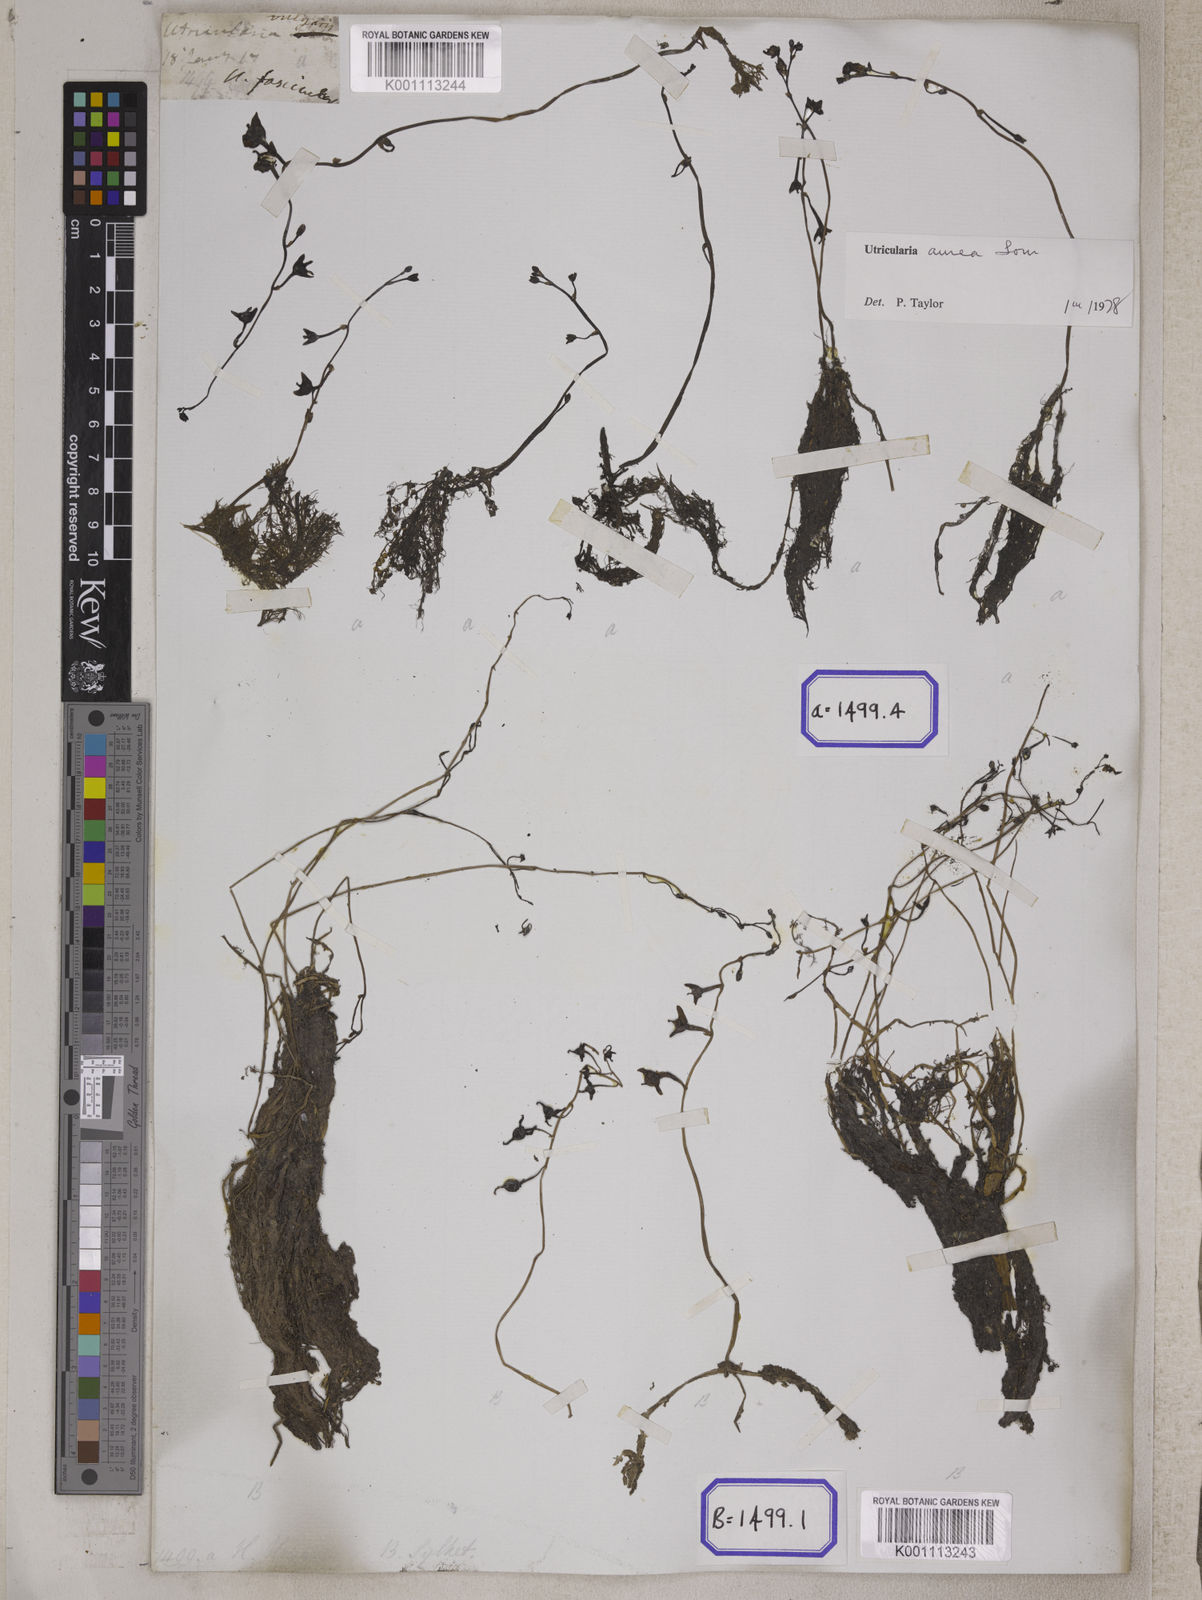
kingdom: Plantae
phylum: Tracheophyta
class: Magnoliopsida
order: Lamiales
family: Lentibulariaceae
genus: Utricularia
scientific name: Utricularia aurea
